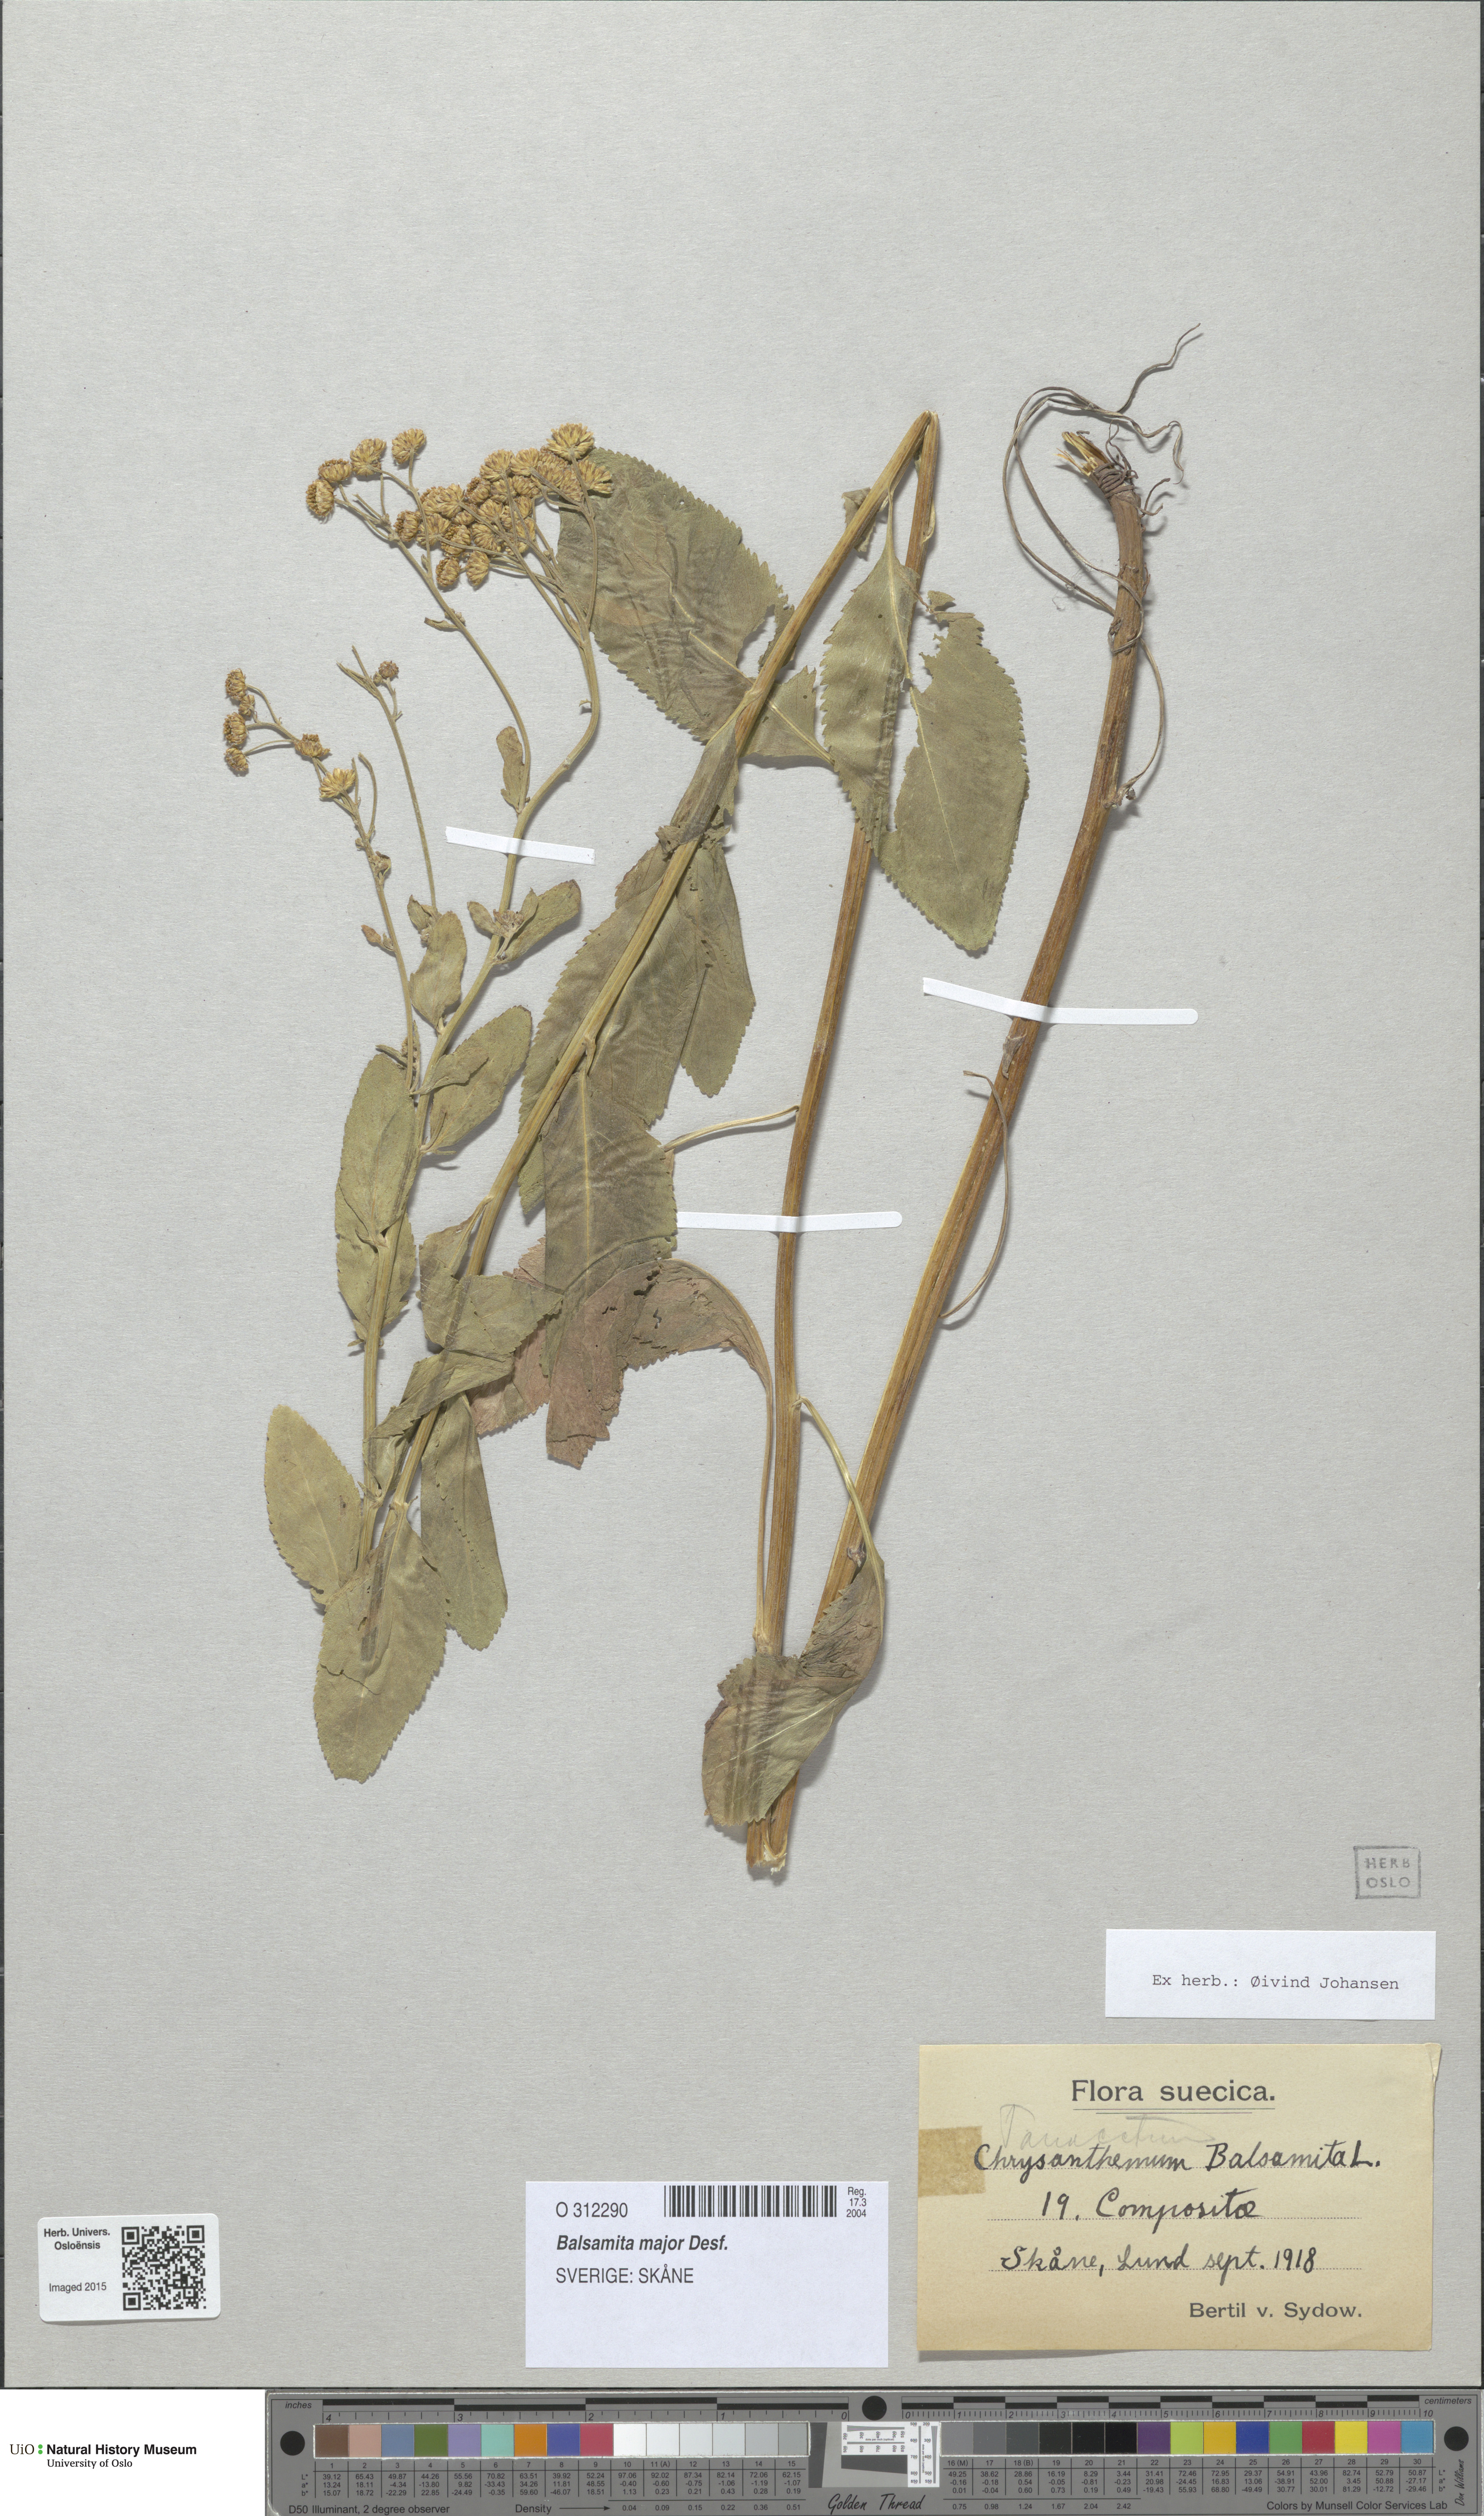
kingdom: Plantae
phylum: Tracheophyta
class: Magnoliopsida
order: Asterales
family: Asteraceae
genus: Tanacetum
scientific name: Tanacetum balsamita
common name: Costmary
